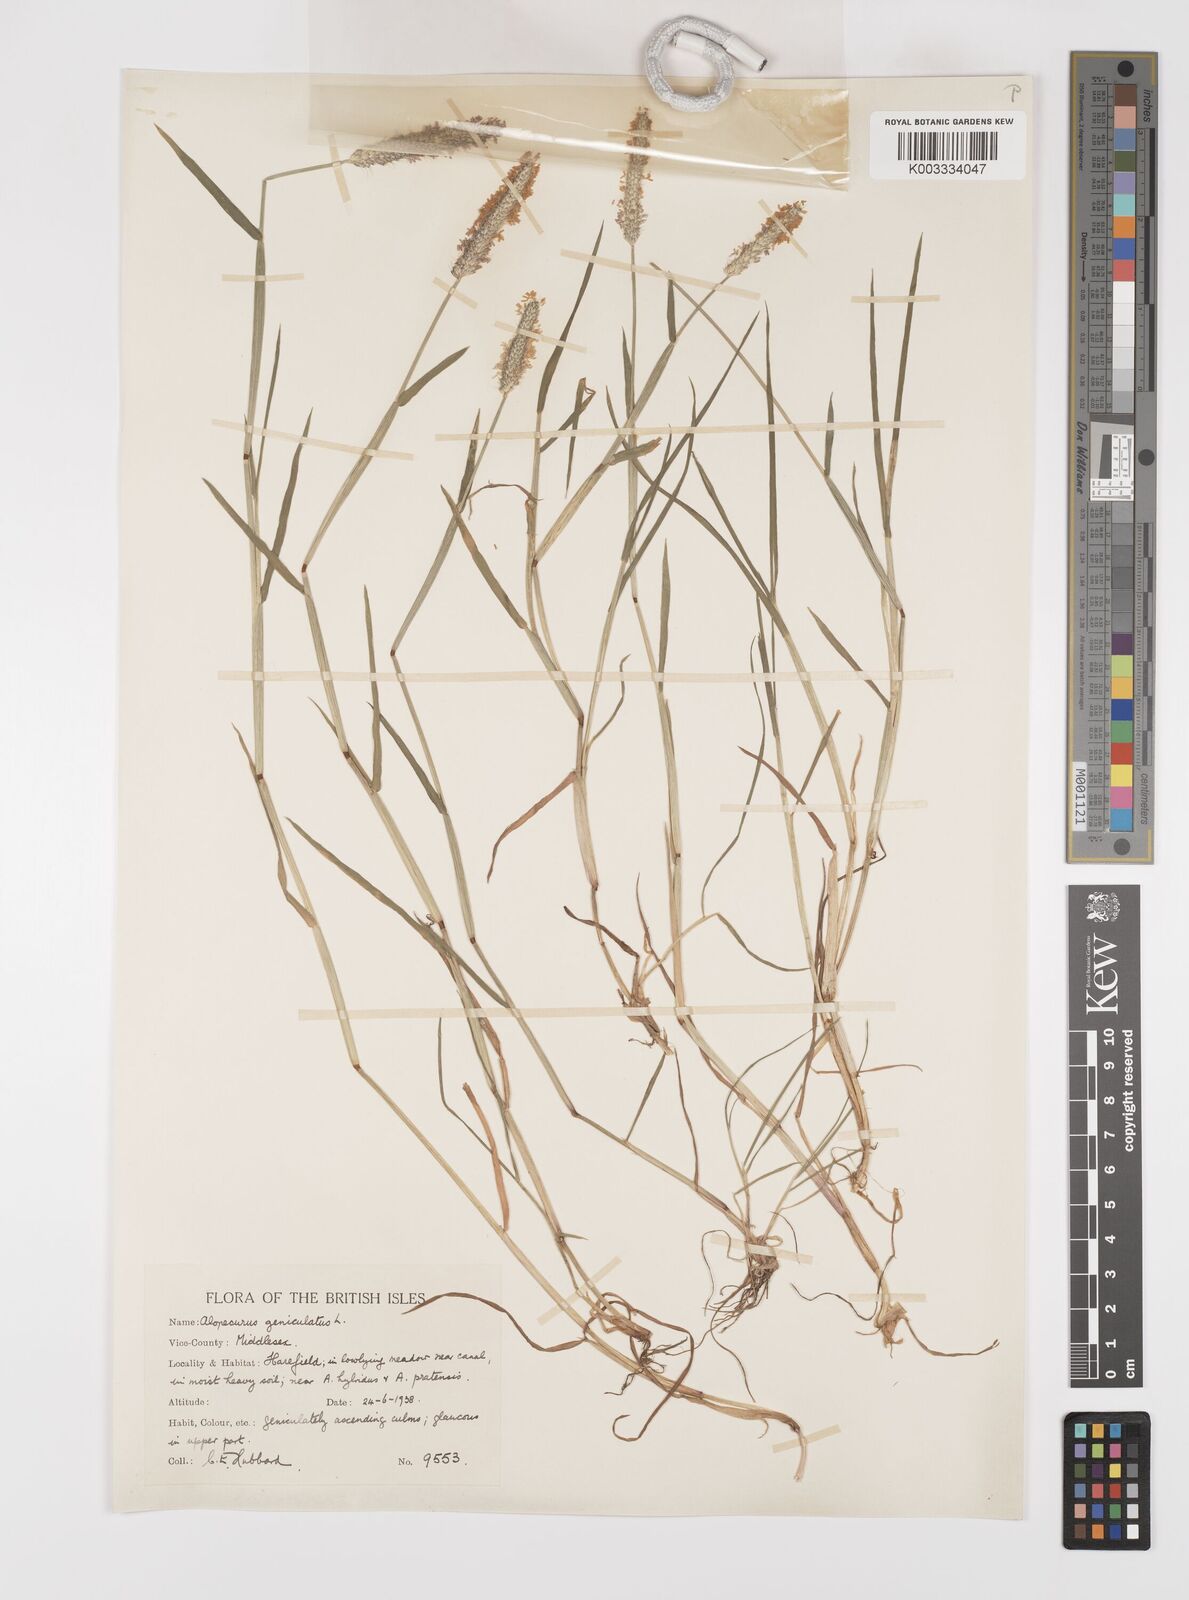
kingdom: Plantae
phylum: Tracheophyta
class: Liliopsida
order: Poales
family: Poaceae
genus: Alopecurus
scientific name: Alopecurus geniculatus
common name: Water foxtail
